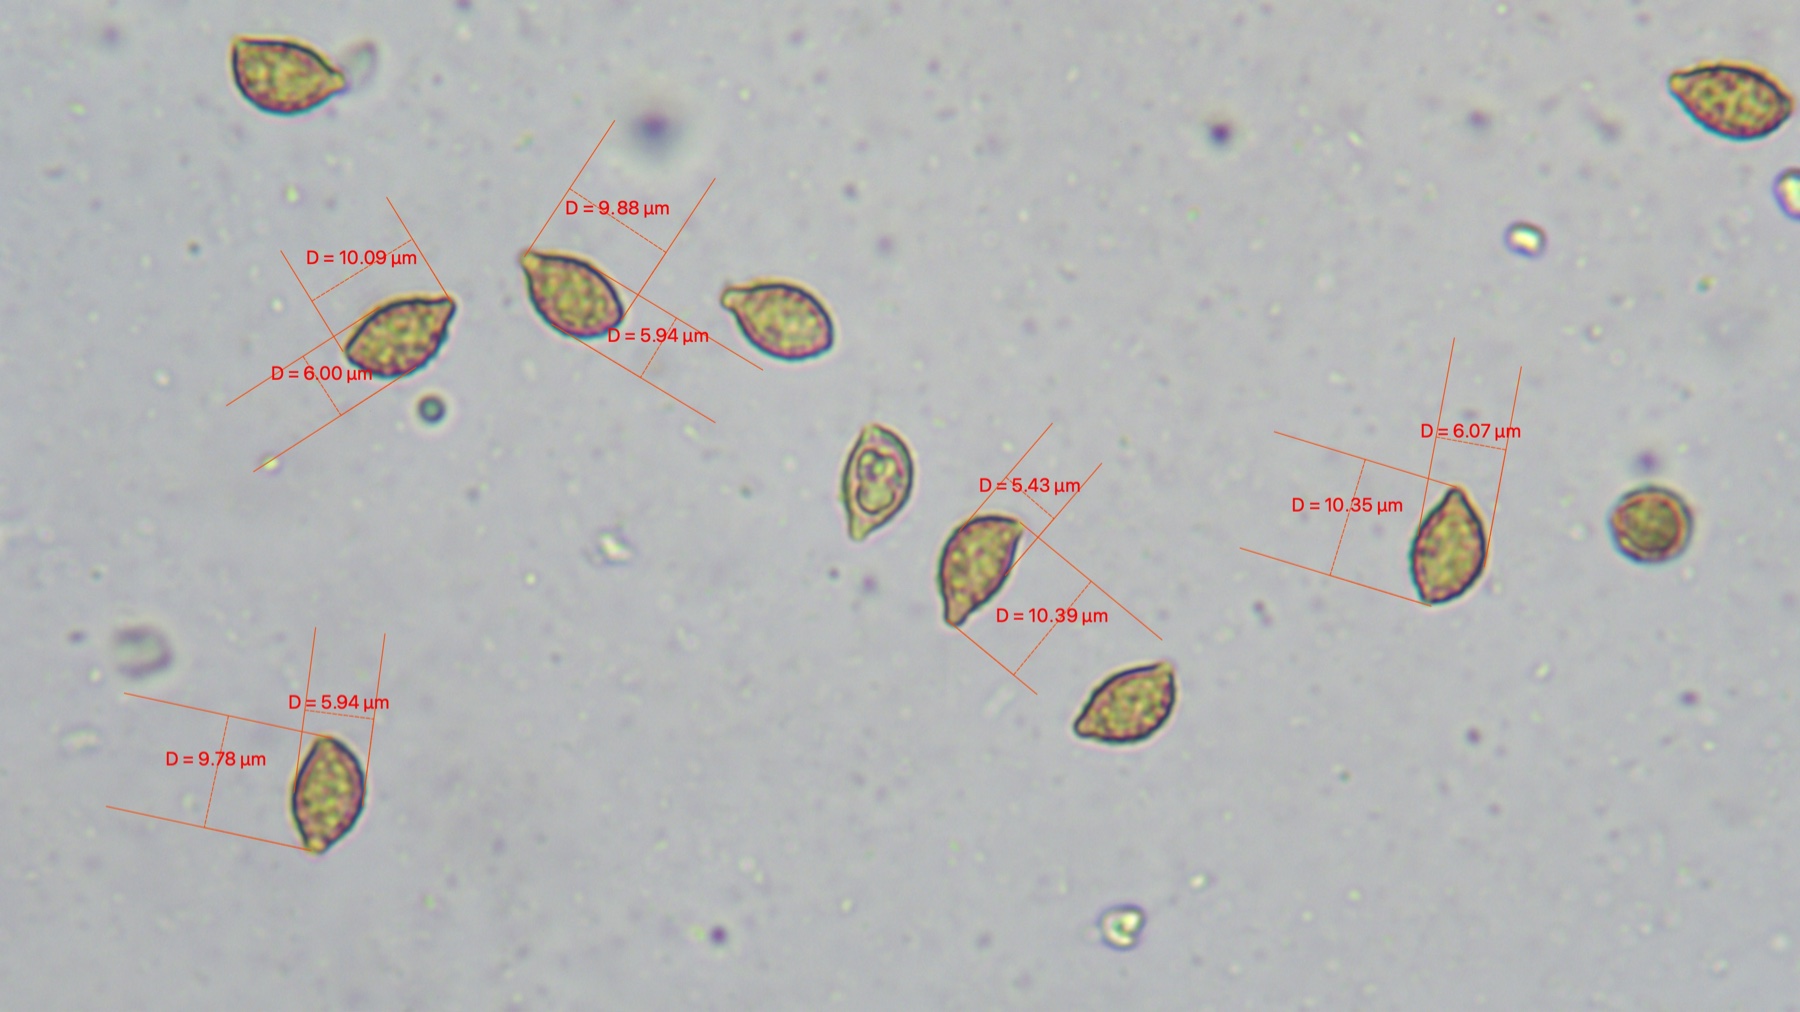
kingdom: Fungi
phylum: Basidiomycota
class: Agaricomycetes
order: Agaricales
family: Cortinariaceae
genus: Cortinarius
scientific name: Cortinarius anserinus
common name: bøge-slørhat
